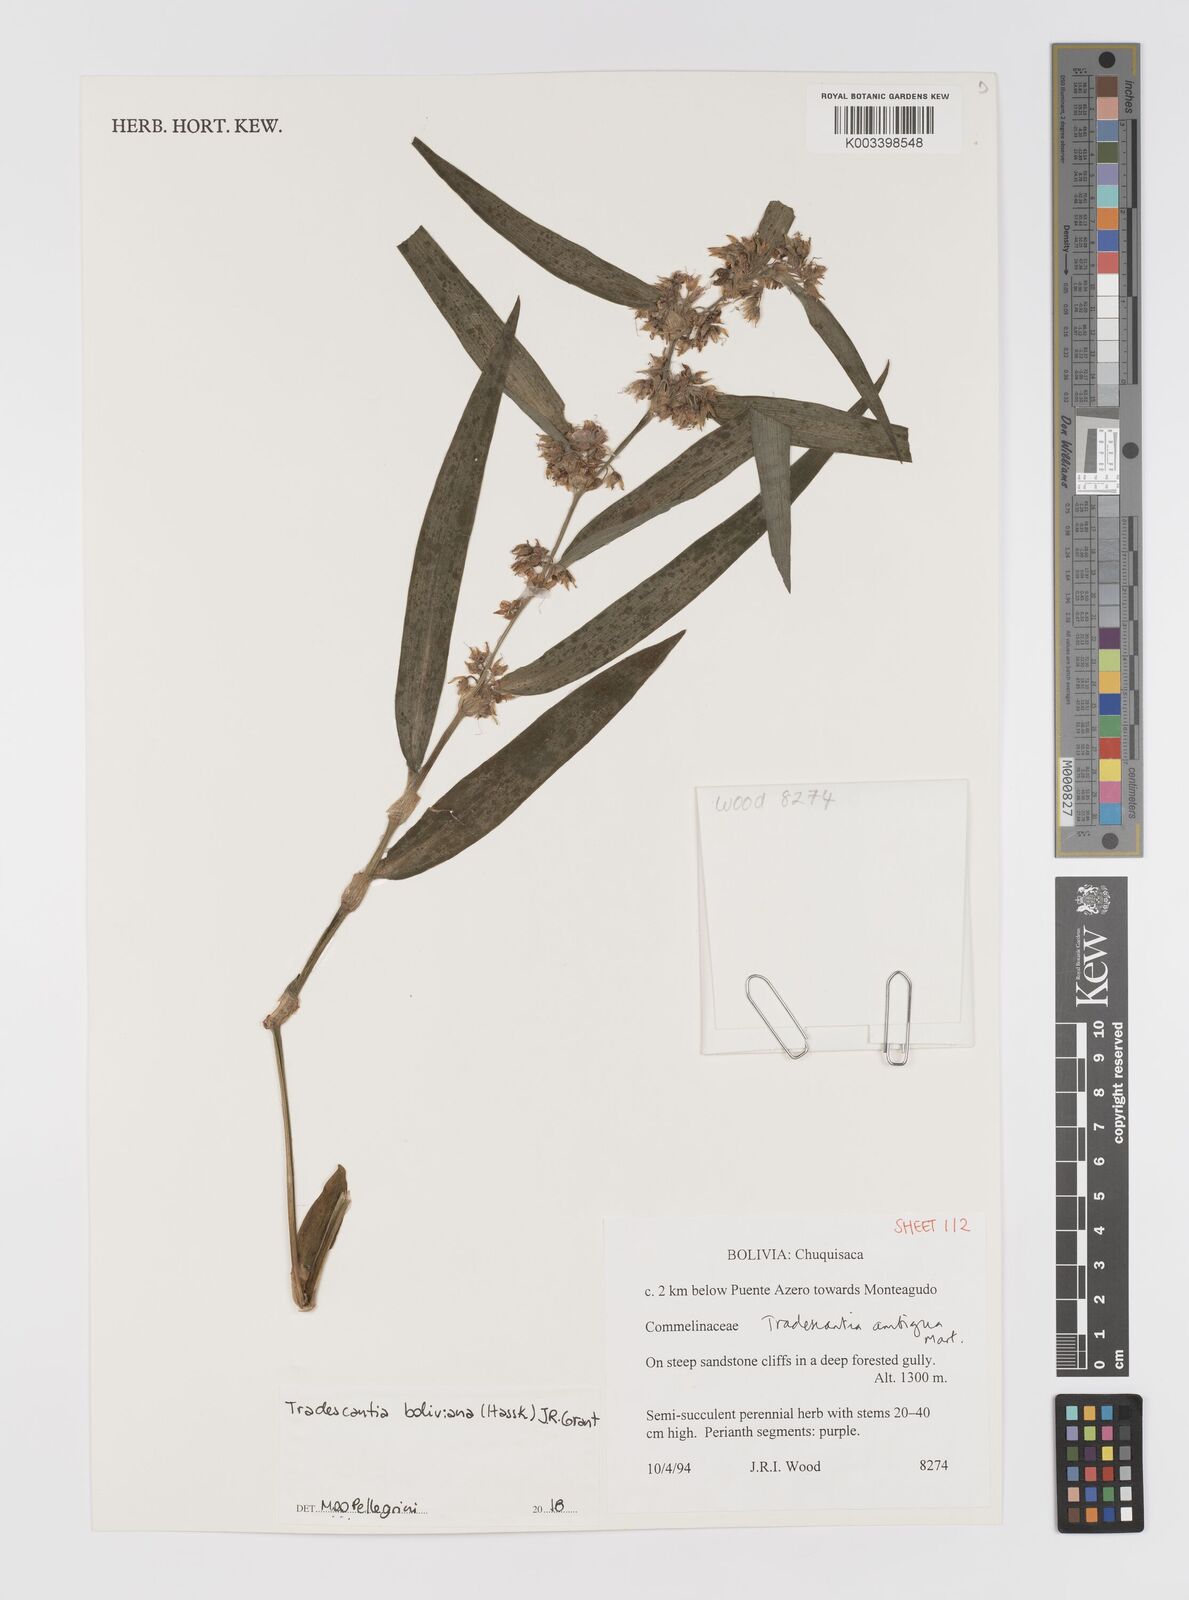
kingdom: Plantae
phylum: Tracheophyta
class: Liliopsida
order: Commelinales
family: Commelinaceae
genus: Tradescantia
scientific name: Tradescantia boliviana
